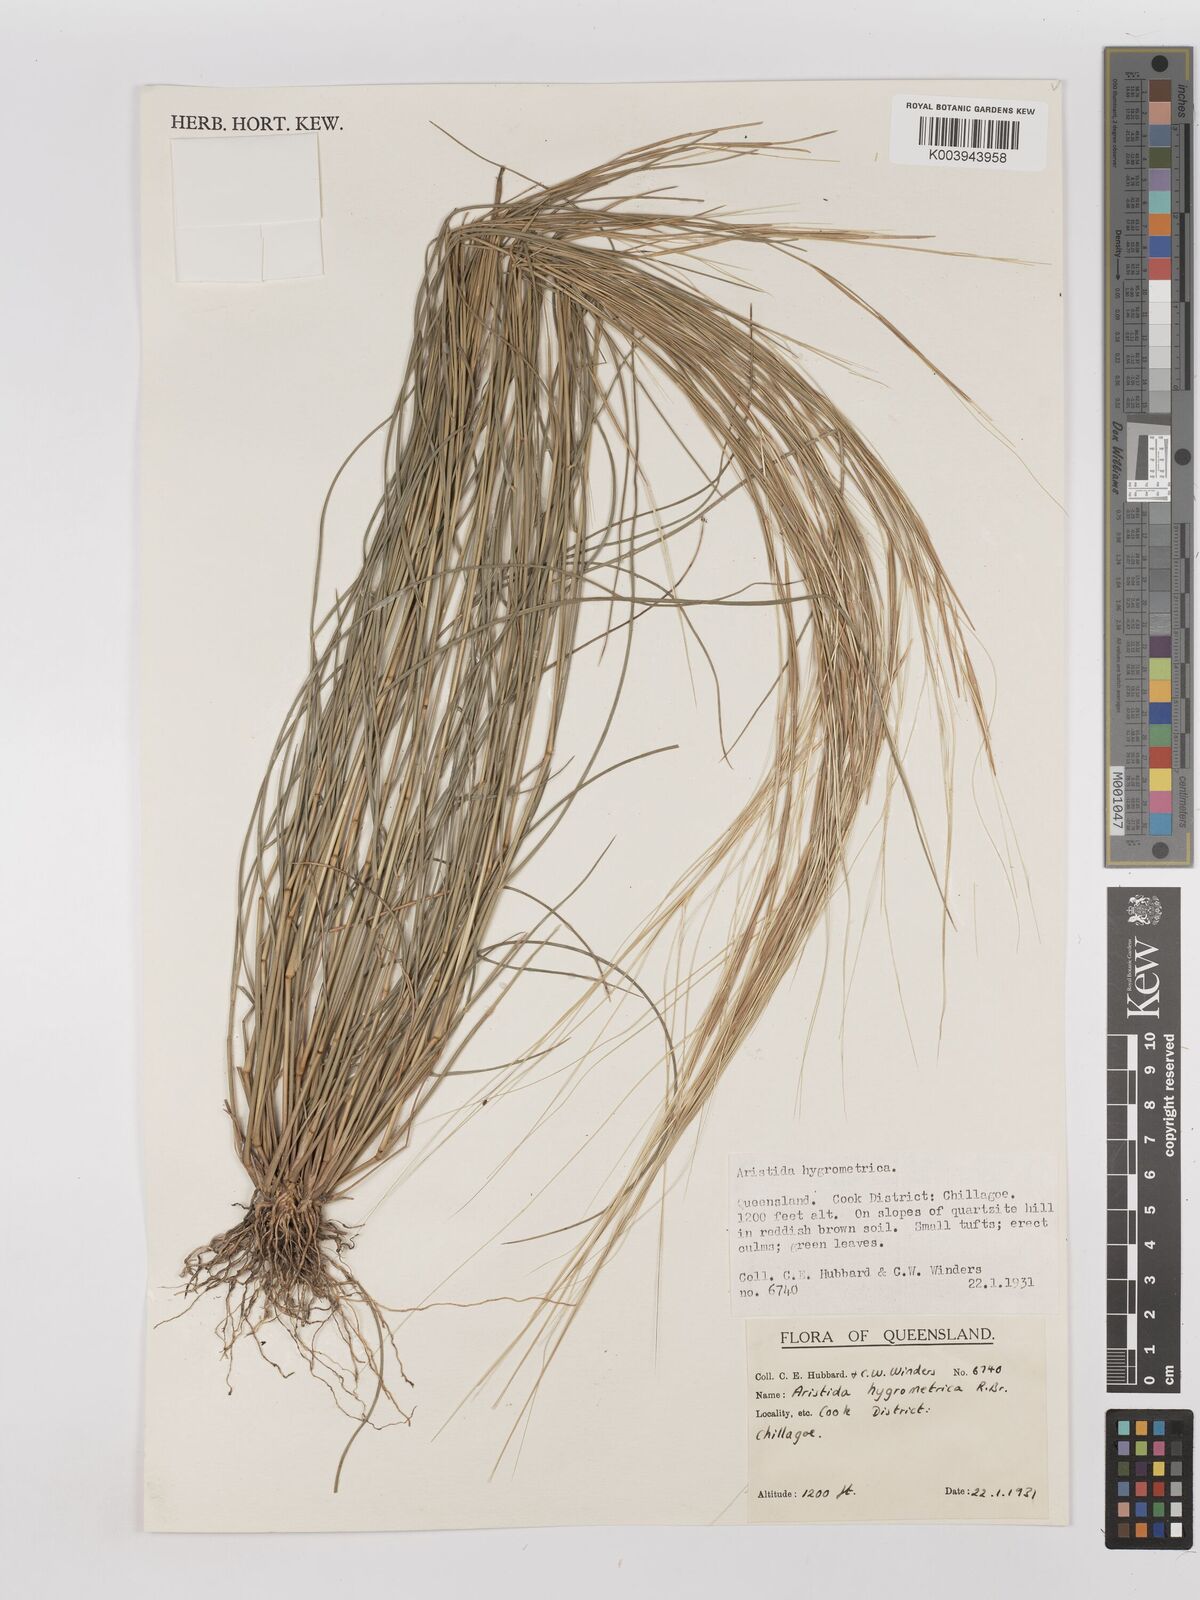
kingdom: Plantae
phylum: Tracheophyta
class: Liliopsida
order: Poales
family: Poaceae
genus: Aristida
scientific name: Aristida hygrometrica
